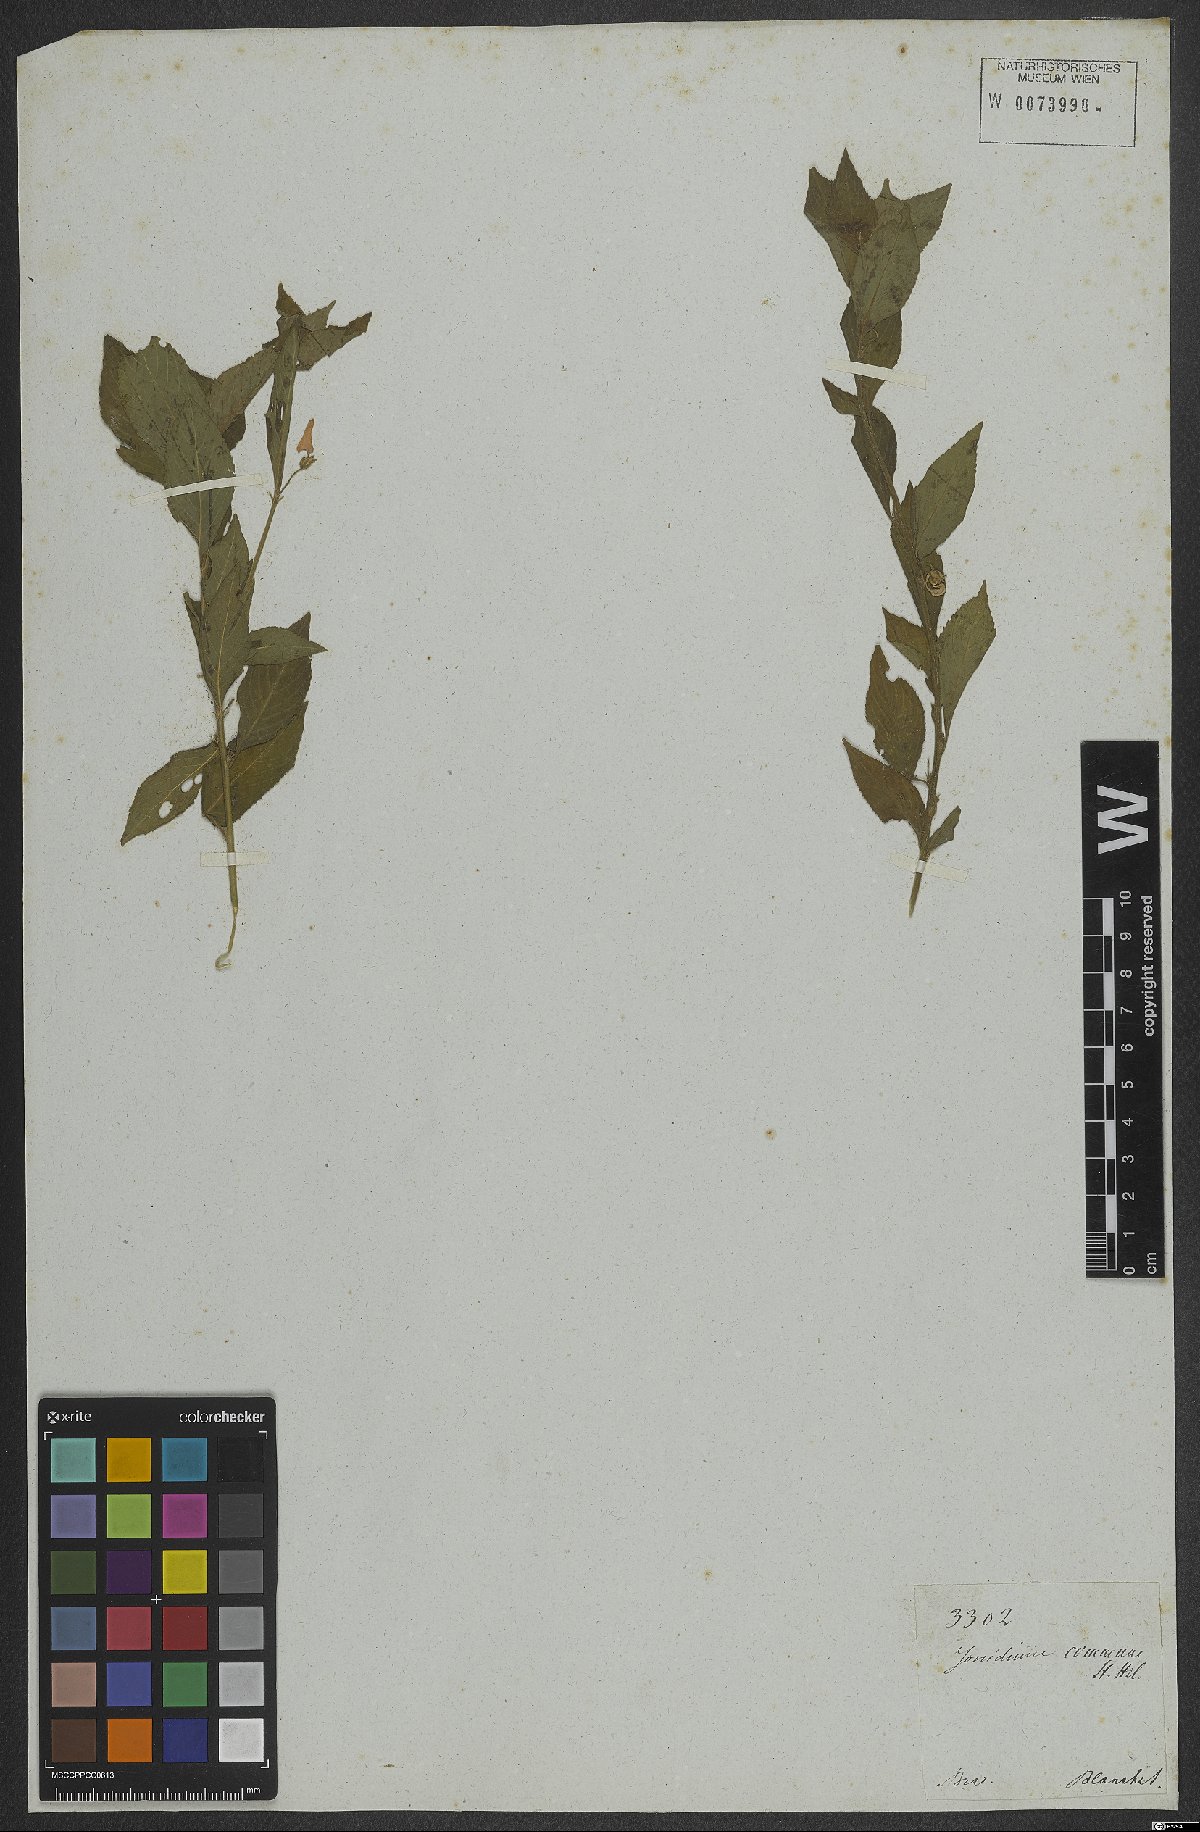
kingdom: Plantae
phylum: Tracheophyta
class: Magnoliopsida
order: Malpighiales
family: Violaceae
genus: Pombalia
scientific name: Pombalia communis
